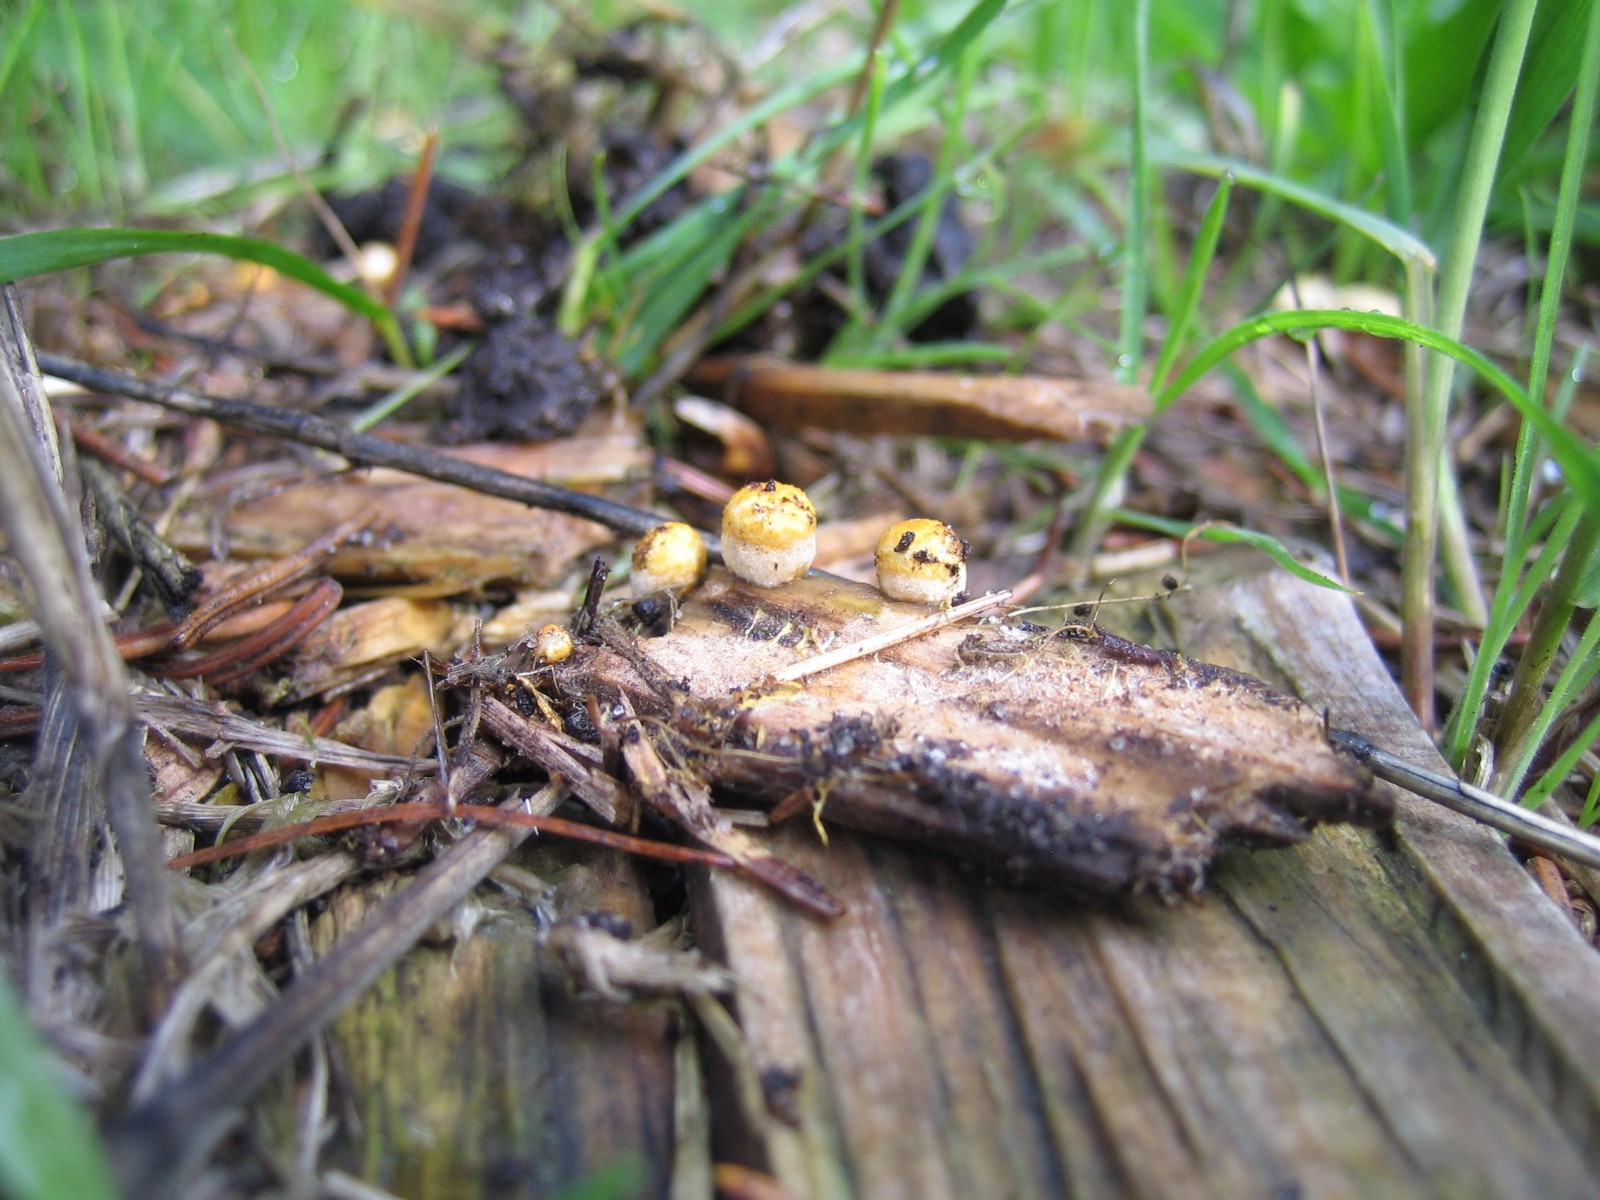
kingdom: Fungi
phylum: Basidiomycota
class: Agaricomycetes
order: Agaricales
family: Nidulariaceae
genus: Crucibulum
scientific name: Crucibulum crucibuliforme
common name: krukkesvamp
